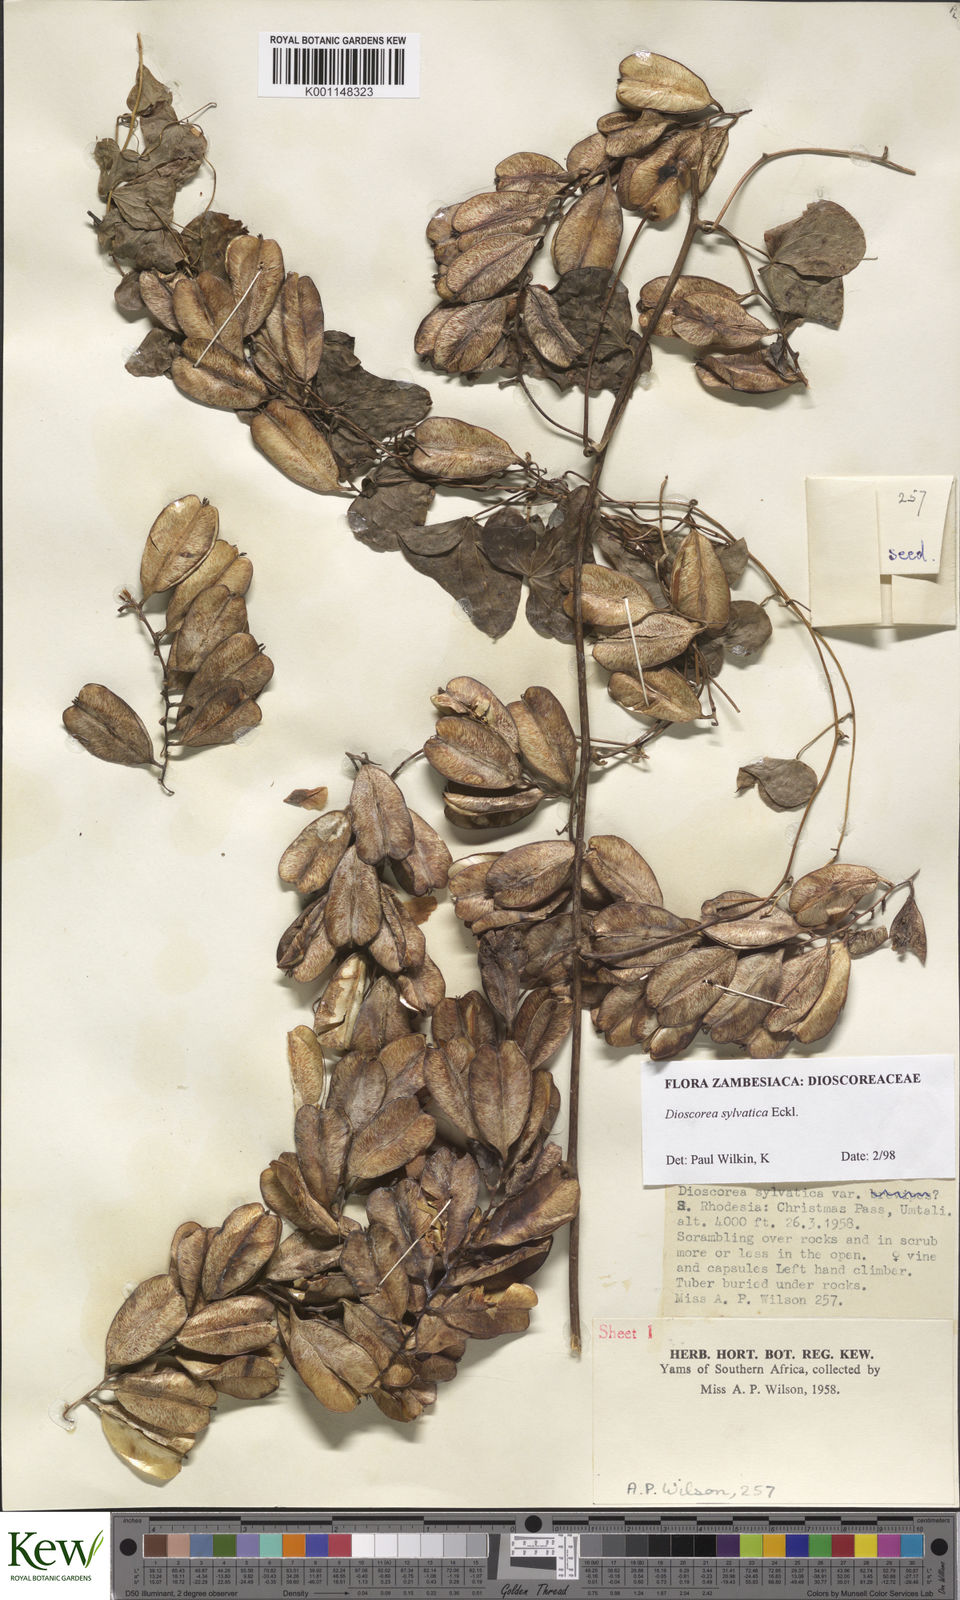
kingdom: Plantae
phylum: Tracheophyta
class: Liliopsida
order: Dioscoreales
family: Dioscoreaceae
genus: Dioscorea
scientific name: Dioscorea sylvatica
